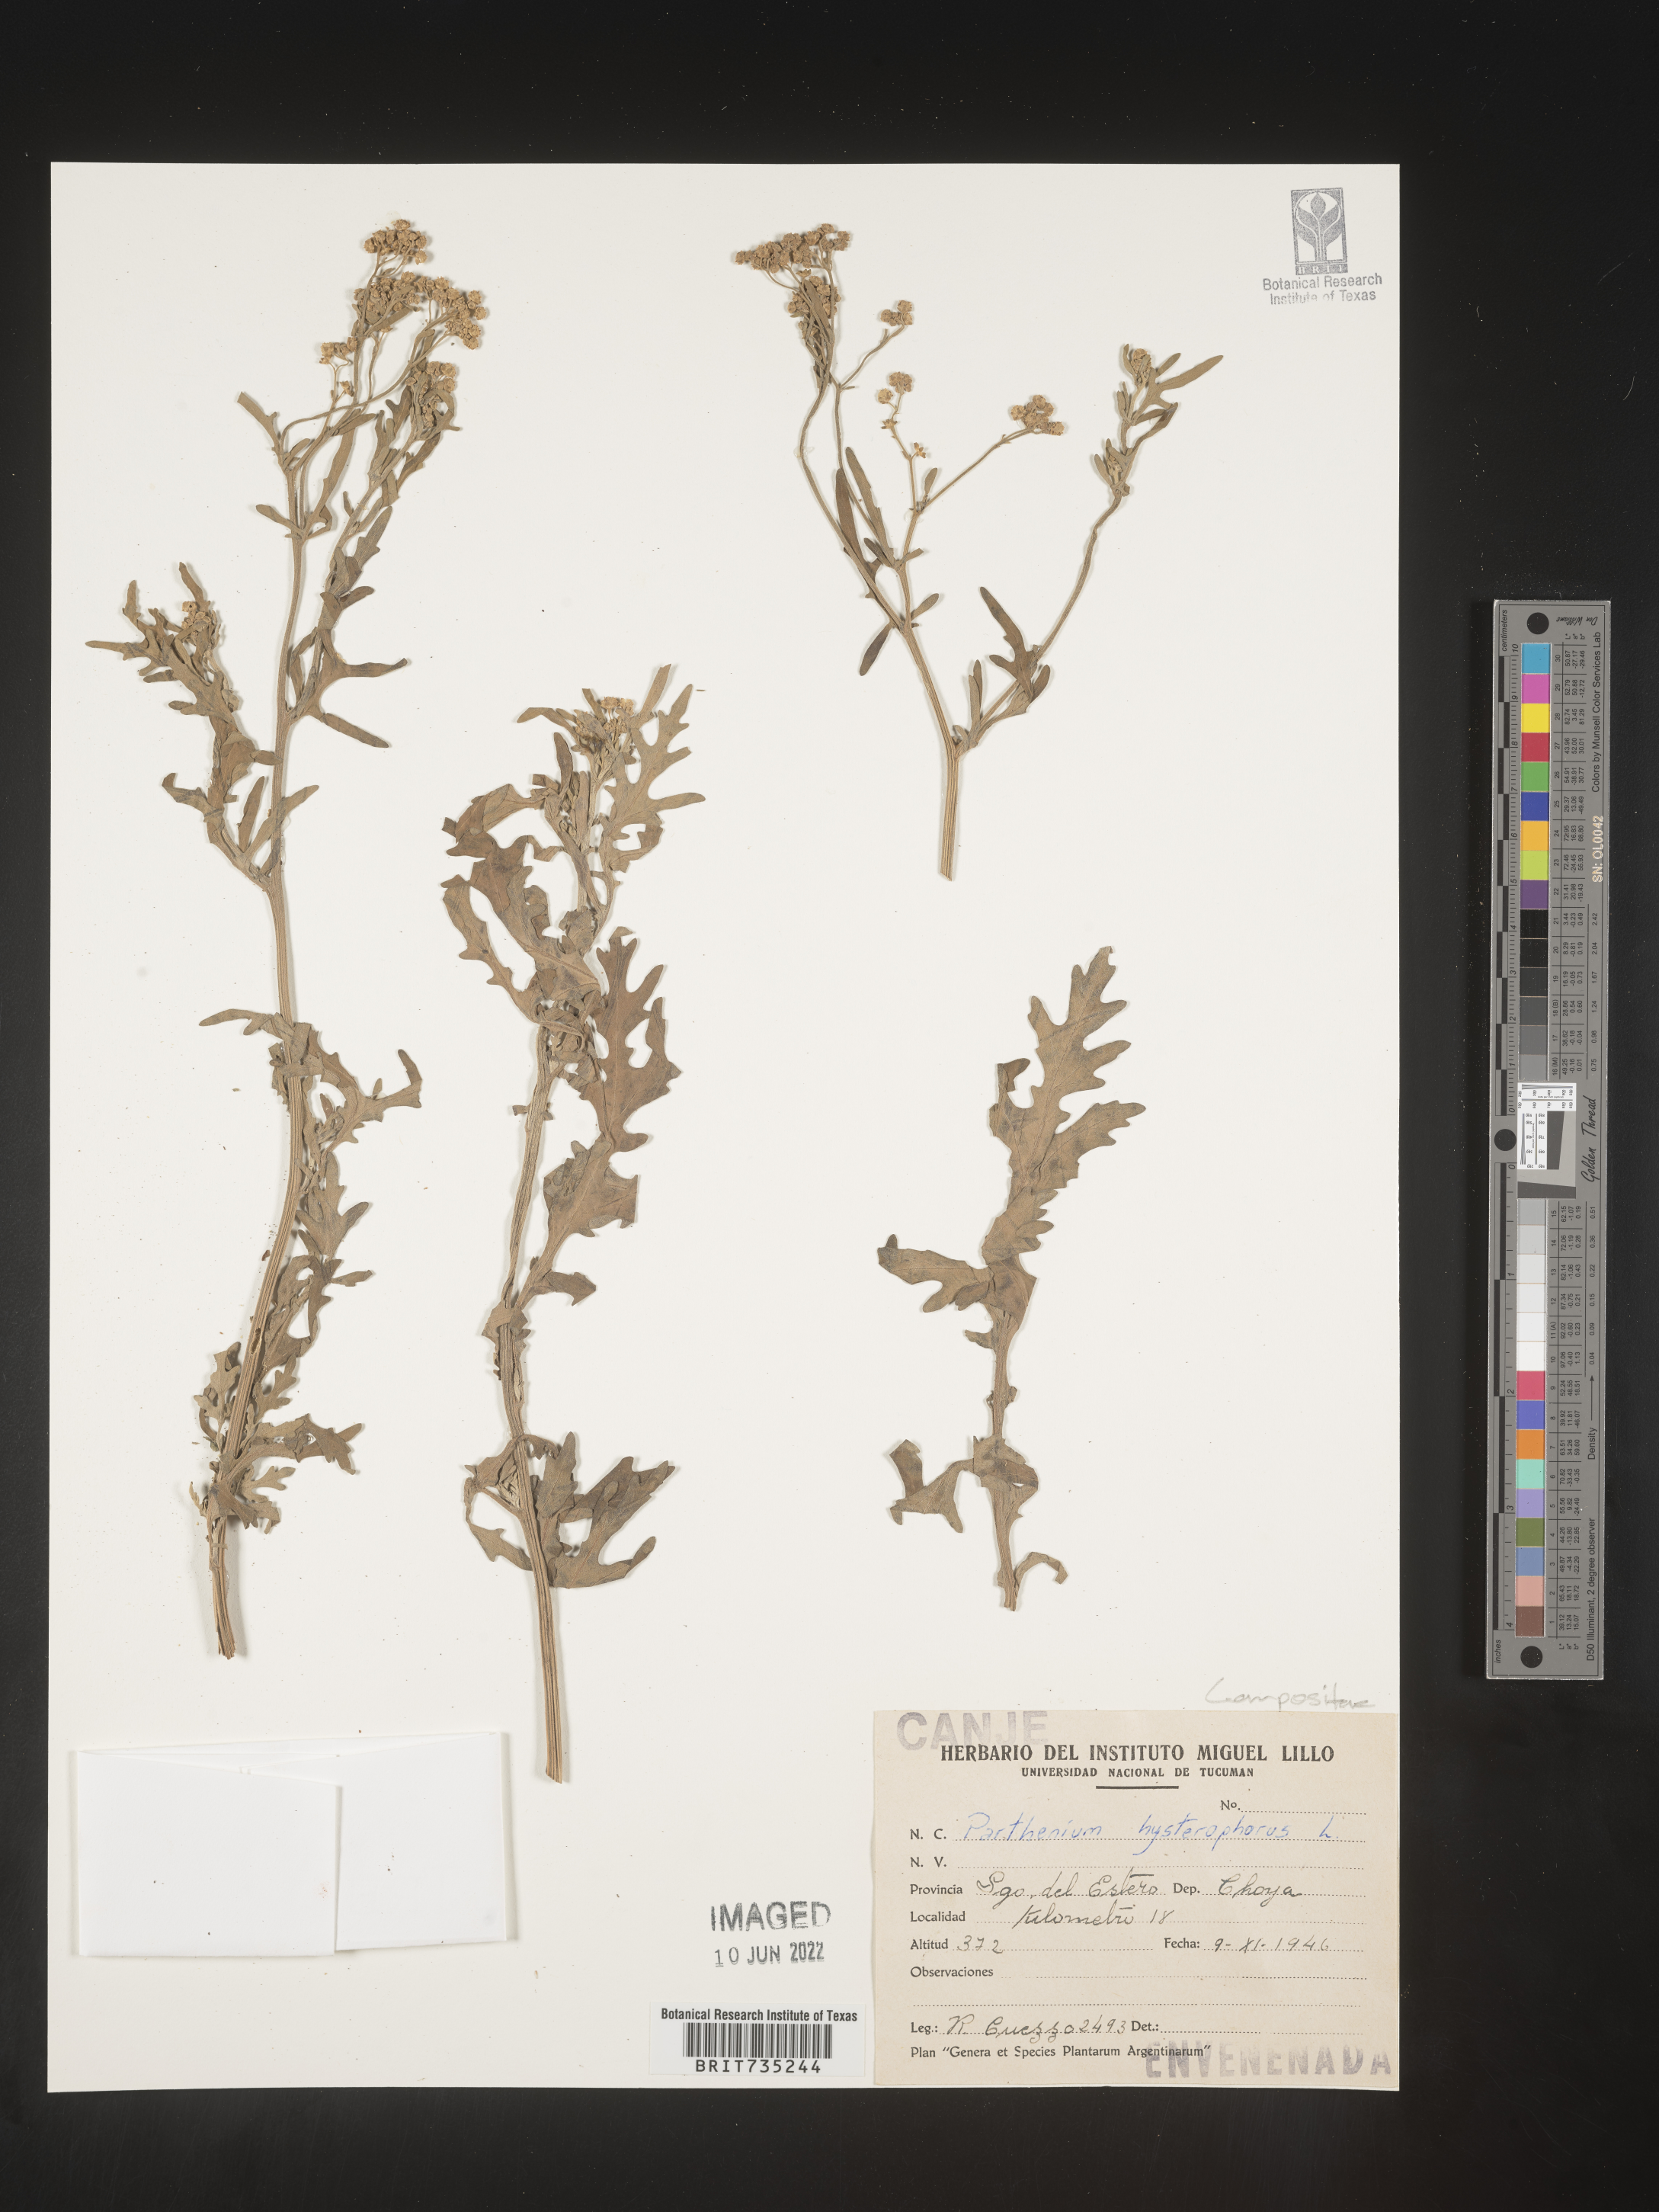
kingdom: Plantae
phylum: Tracheophyta
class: Magnoliopsida
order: Asterales
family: Asteraceae
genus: Parthenium
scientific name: Parthenium
